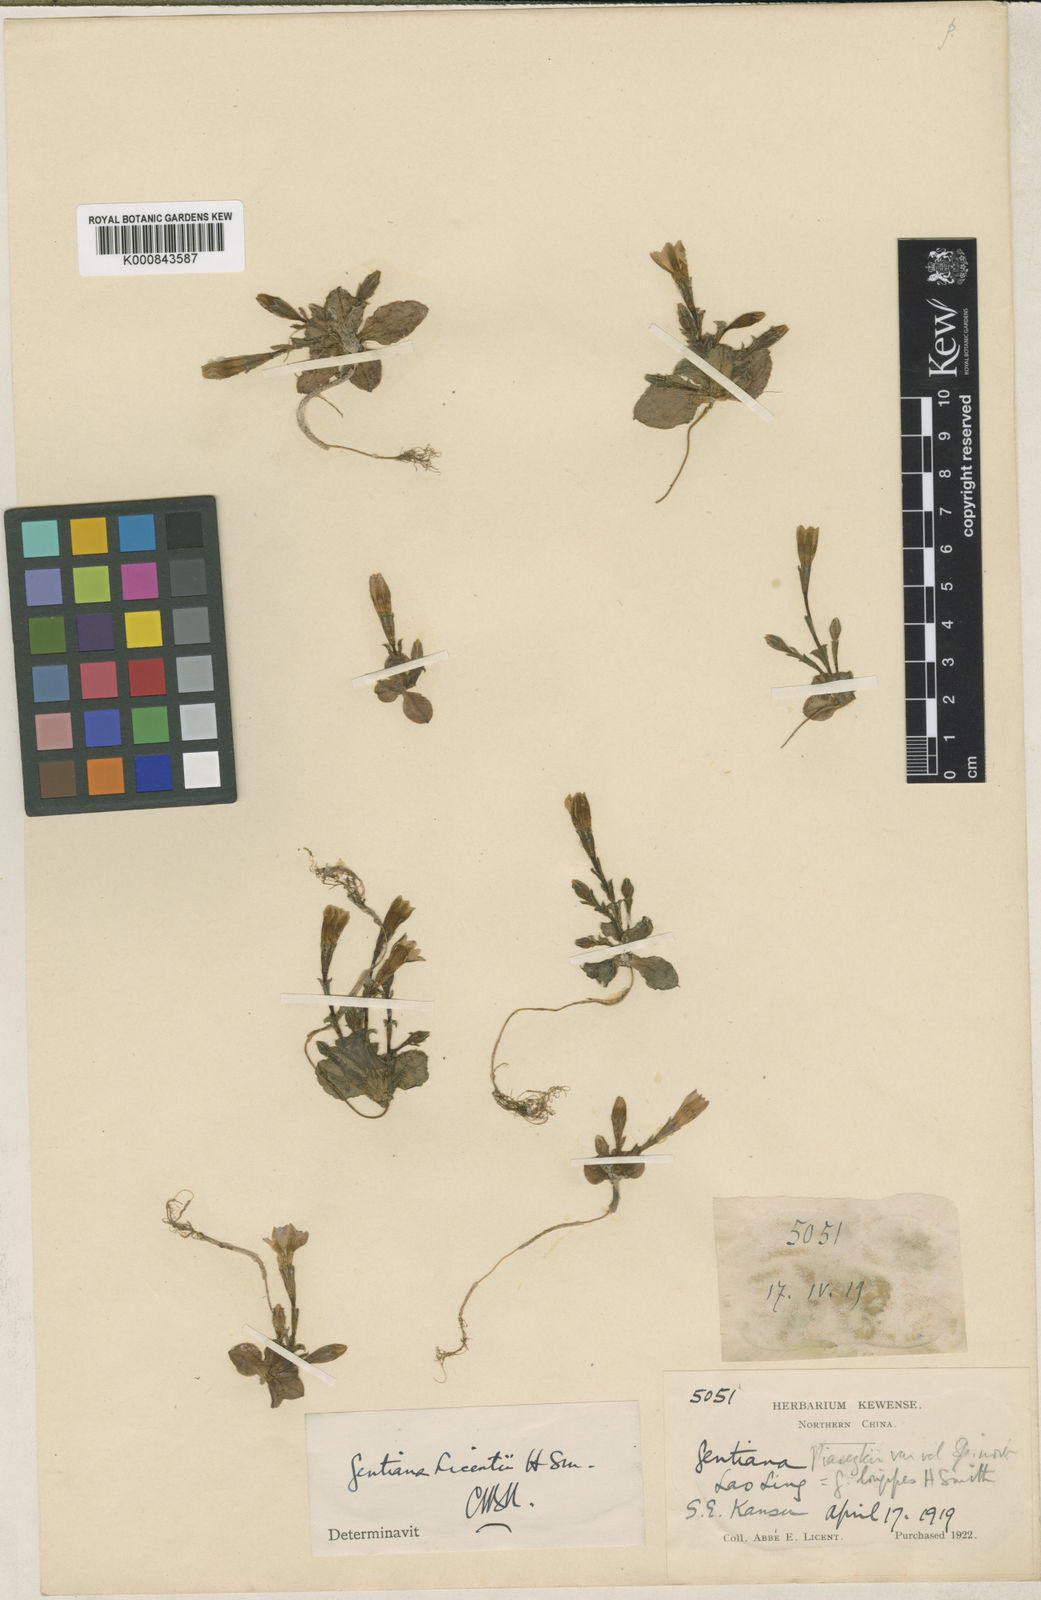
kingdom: Plantae
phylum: Tracheophyta
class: Magnoliopsida
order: Gentianales
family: Gentianaceae
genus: Gentiana
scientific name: Gentiana licentii
